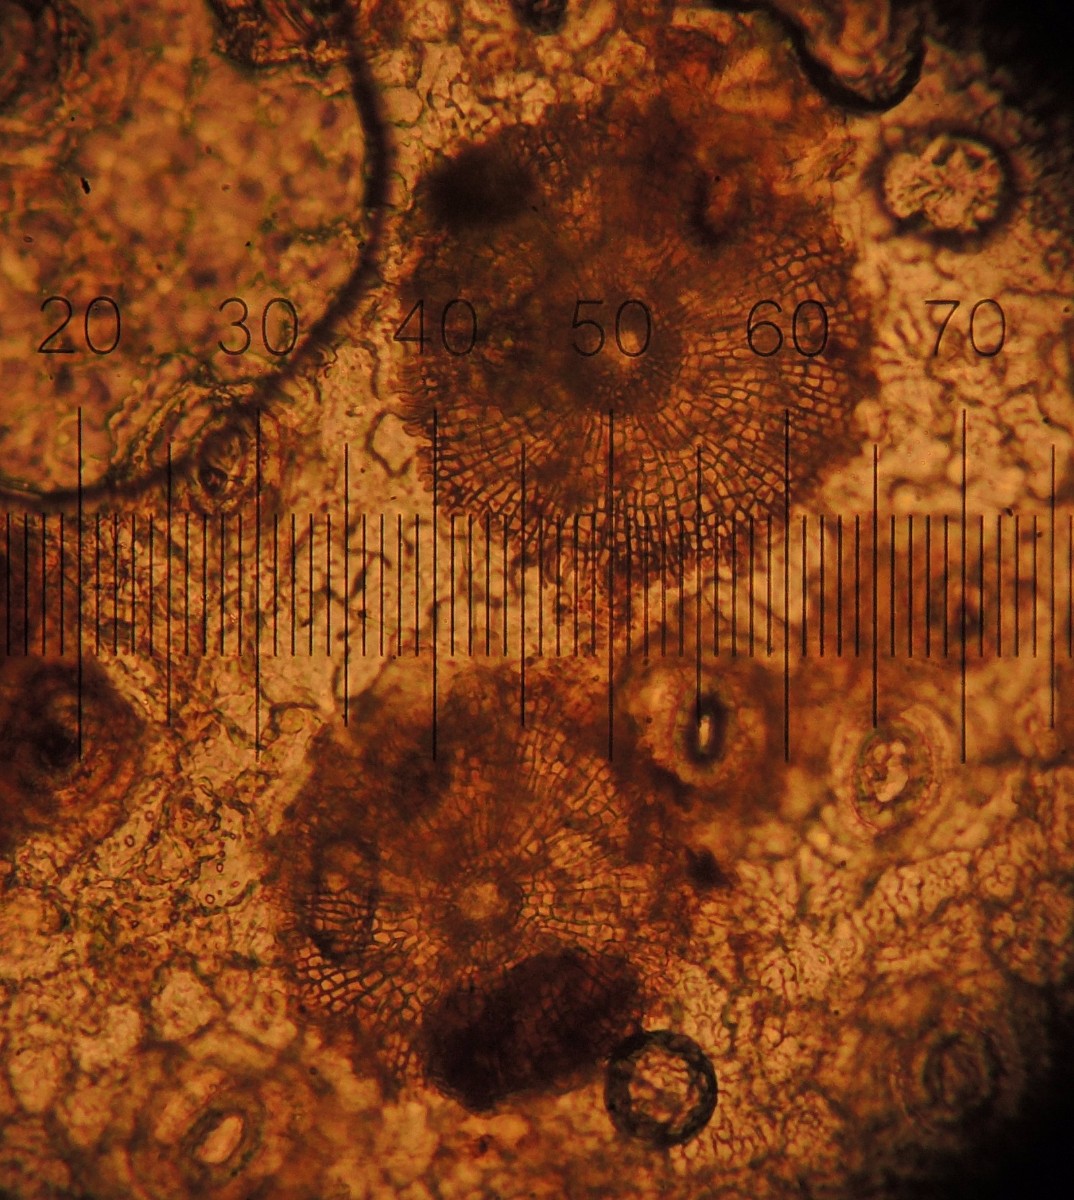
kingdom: Fungi
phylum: Ascomycota
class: Dothideomycetes
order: Microthyriales
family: Microthyriaceae
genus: Microthyrium
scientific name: Microthyrium ciliatum
